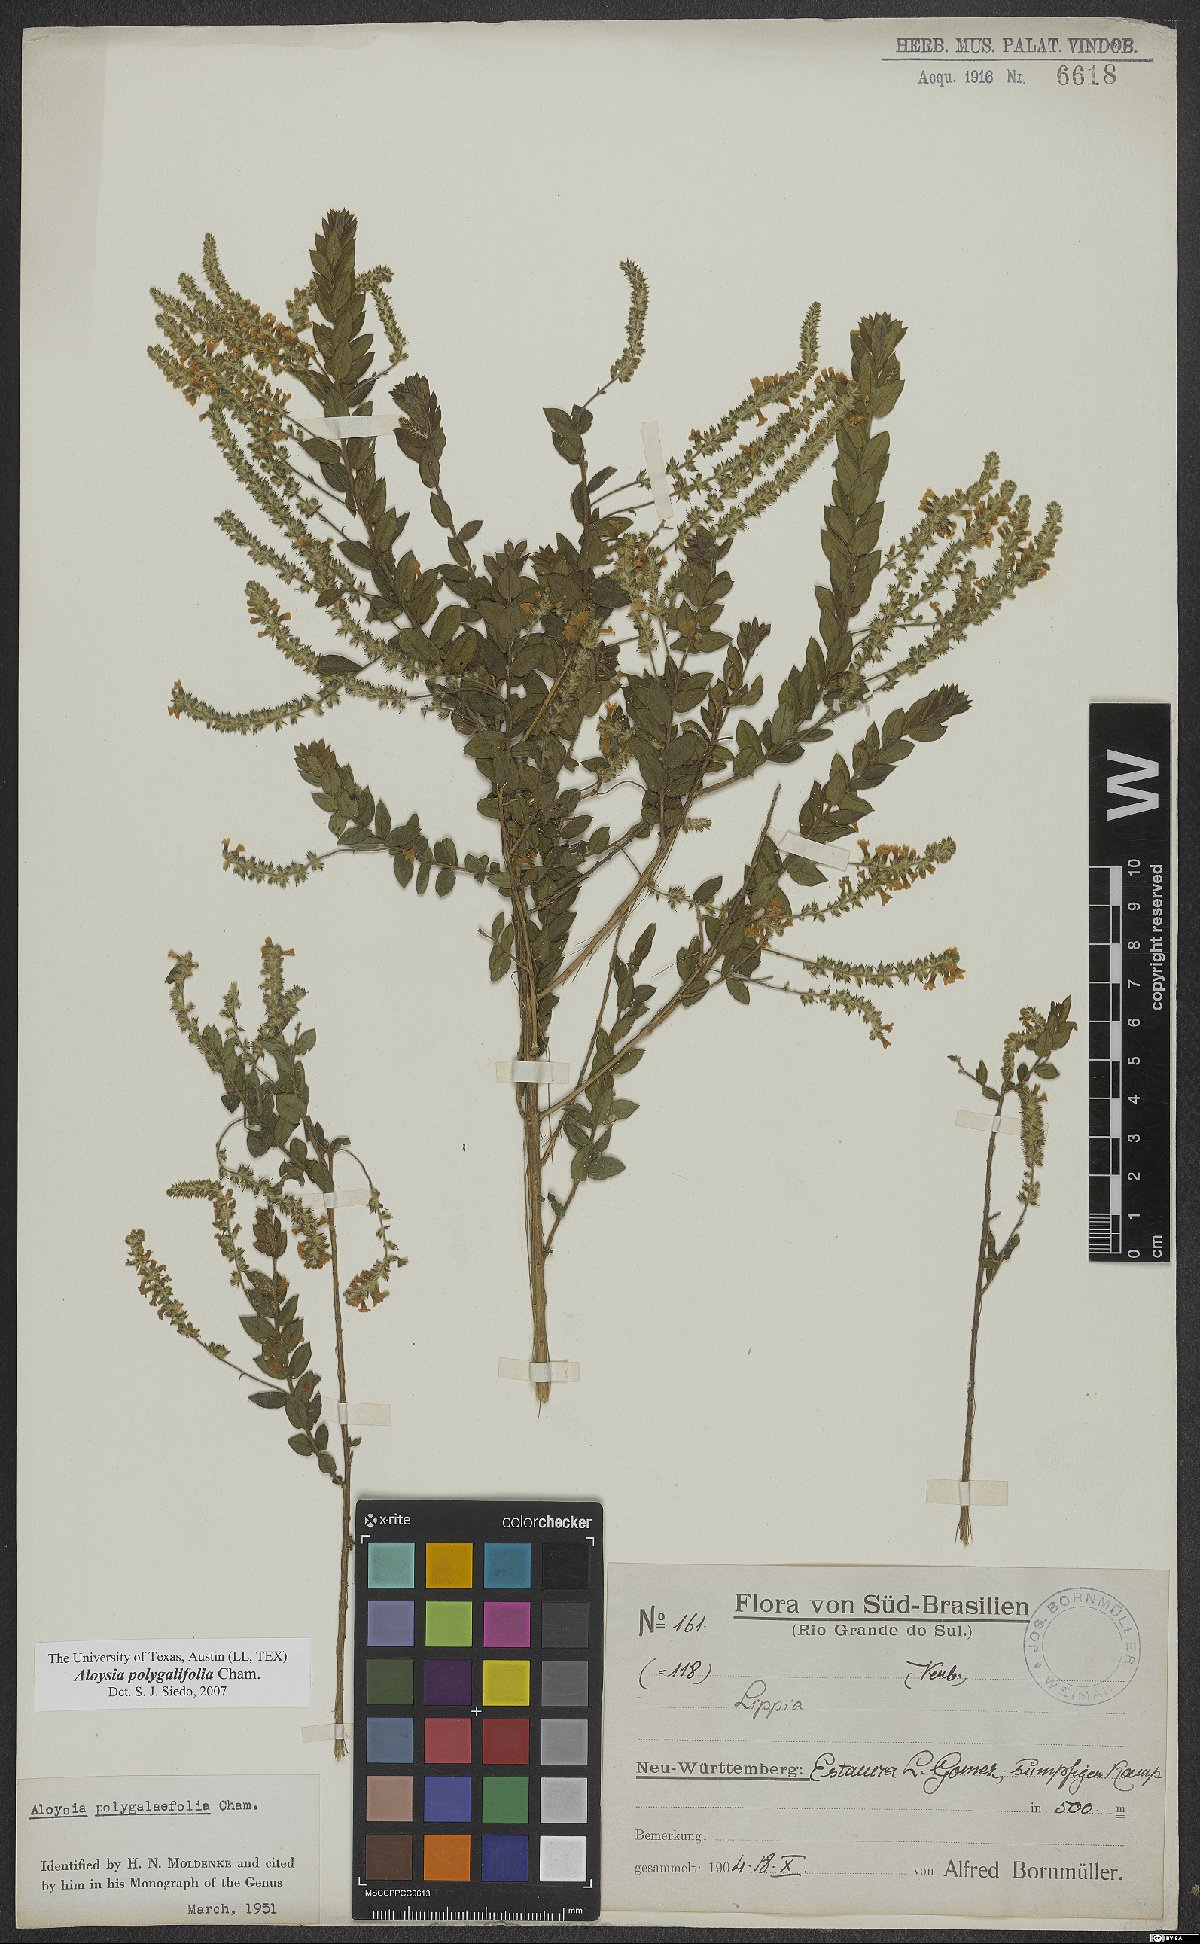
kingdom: Plantae
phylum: Tracheophyta
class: Magnoliopsida
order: Lamiales
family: Verbenaceae
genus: Aloysia
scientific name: Aloysia polygalifolia
